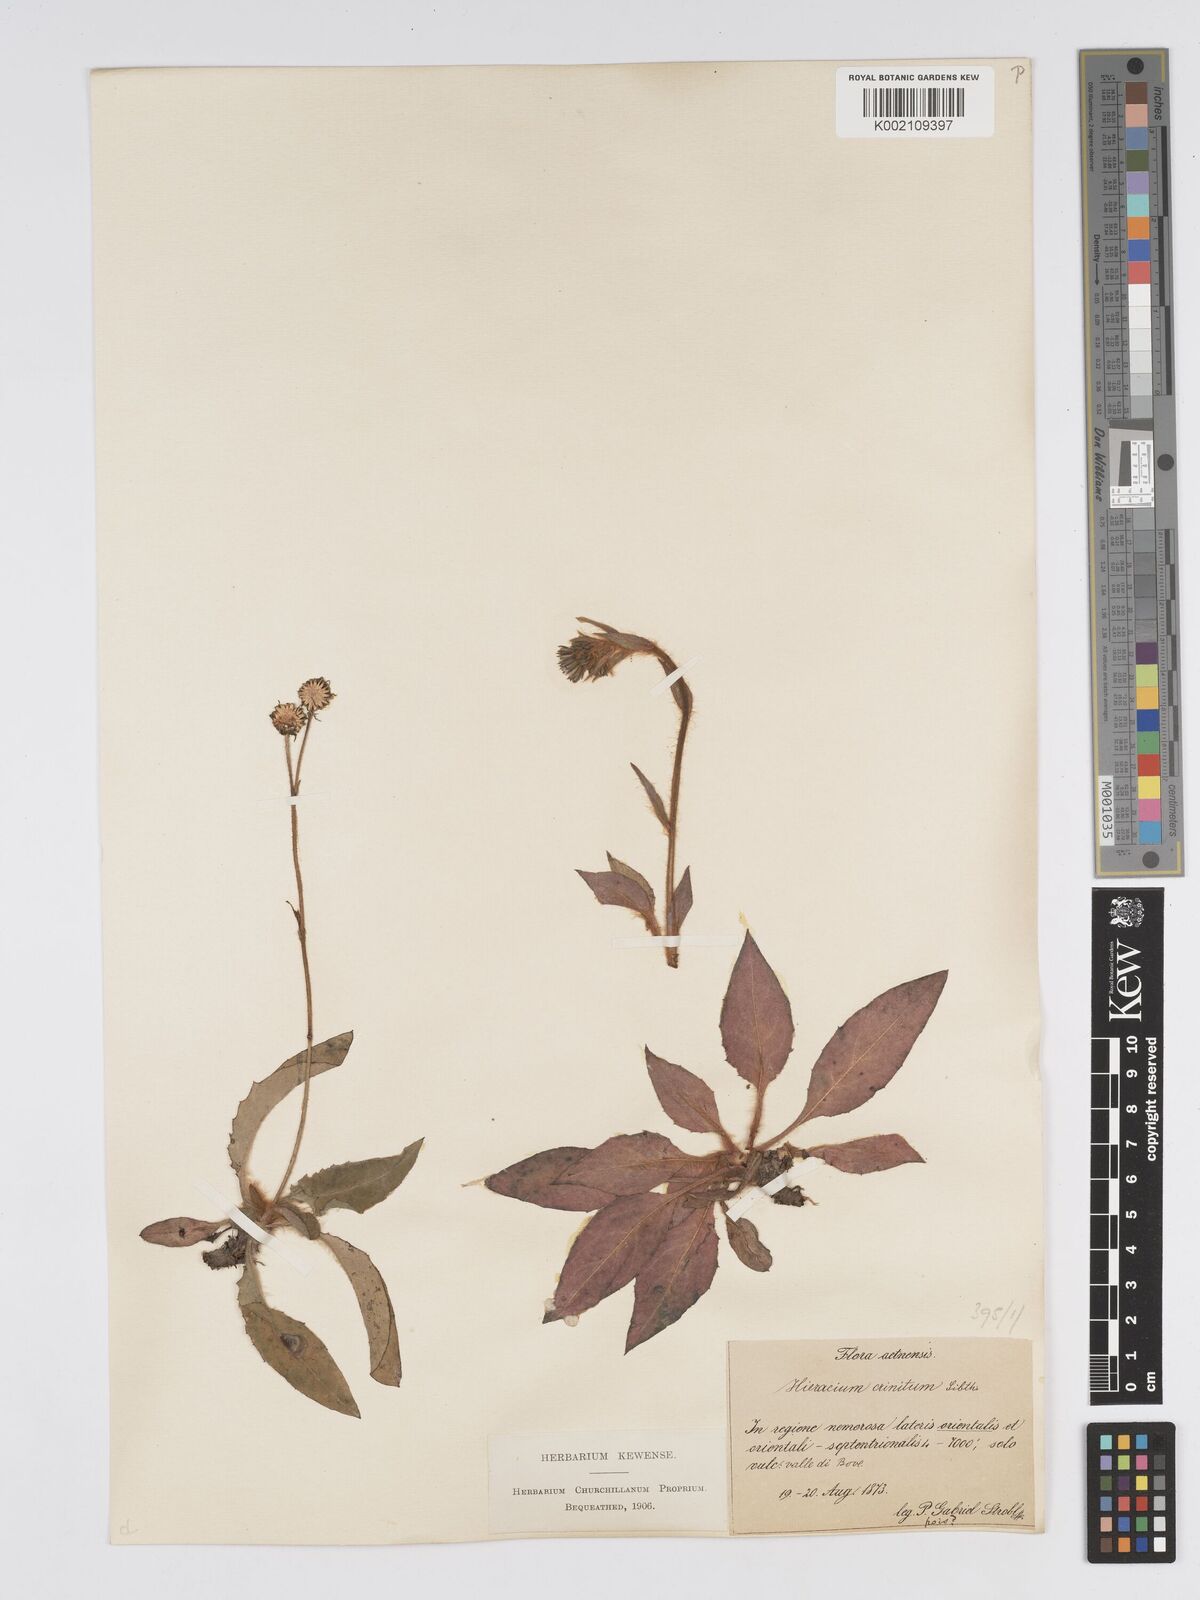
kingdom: Plantae
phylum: Tracheophyta
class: Magnoliopsida
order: Asterales
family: Asteraceae
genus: Hieracium
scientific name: Hieracium racemosum
